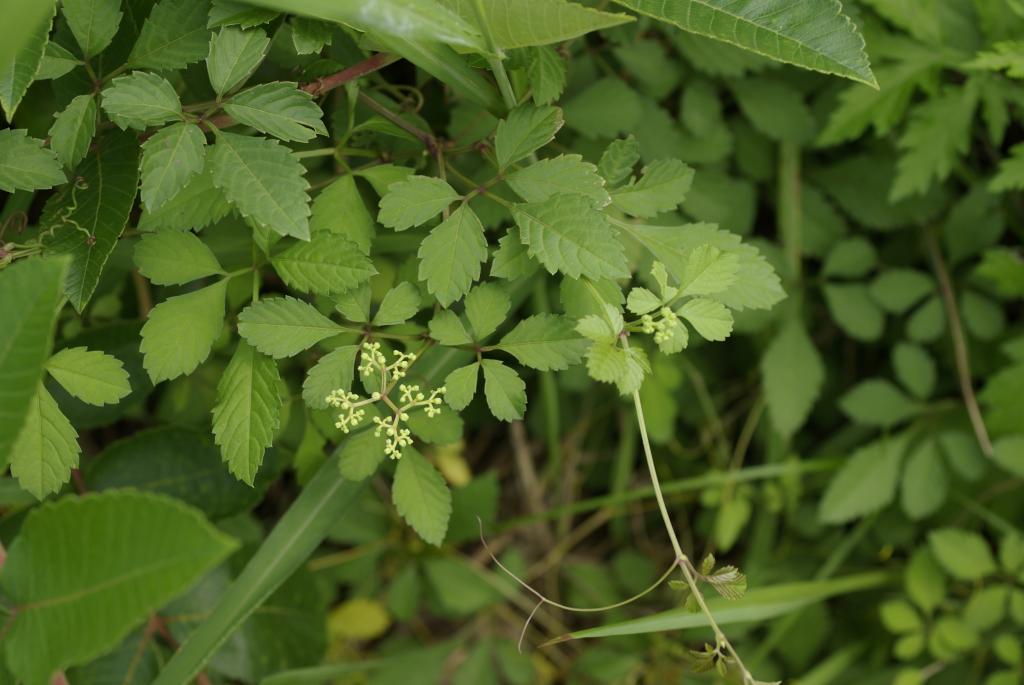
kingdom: Plantae
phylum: Tracheophyta
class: Magnoliopsida
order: Vitales
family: Vitaceae
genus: Causonis
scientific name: Causonis japonica
